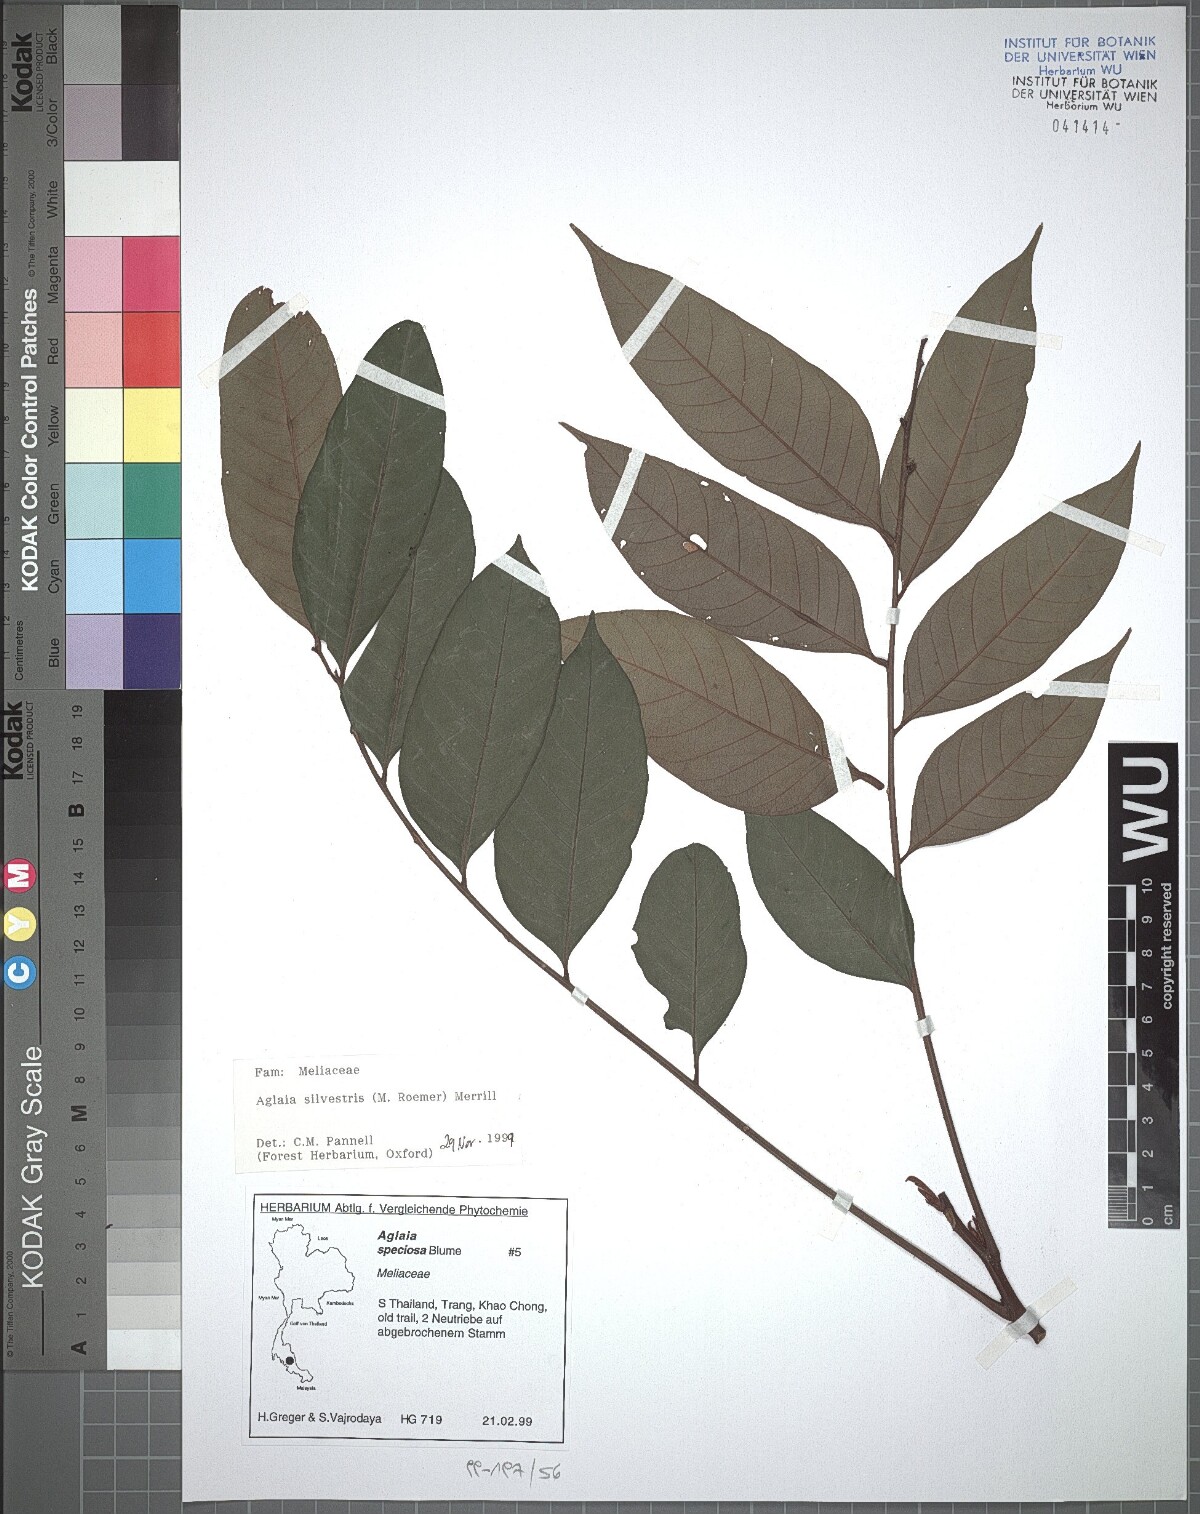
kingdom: Plantae
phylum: Tracheophyta
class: Magnoliopsida
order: Sapindales
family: Meliaceae
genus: Aglaia
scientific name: Aglaia silvestris
